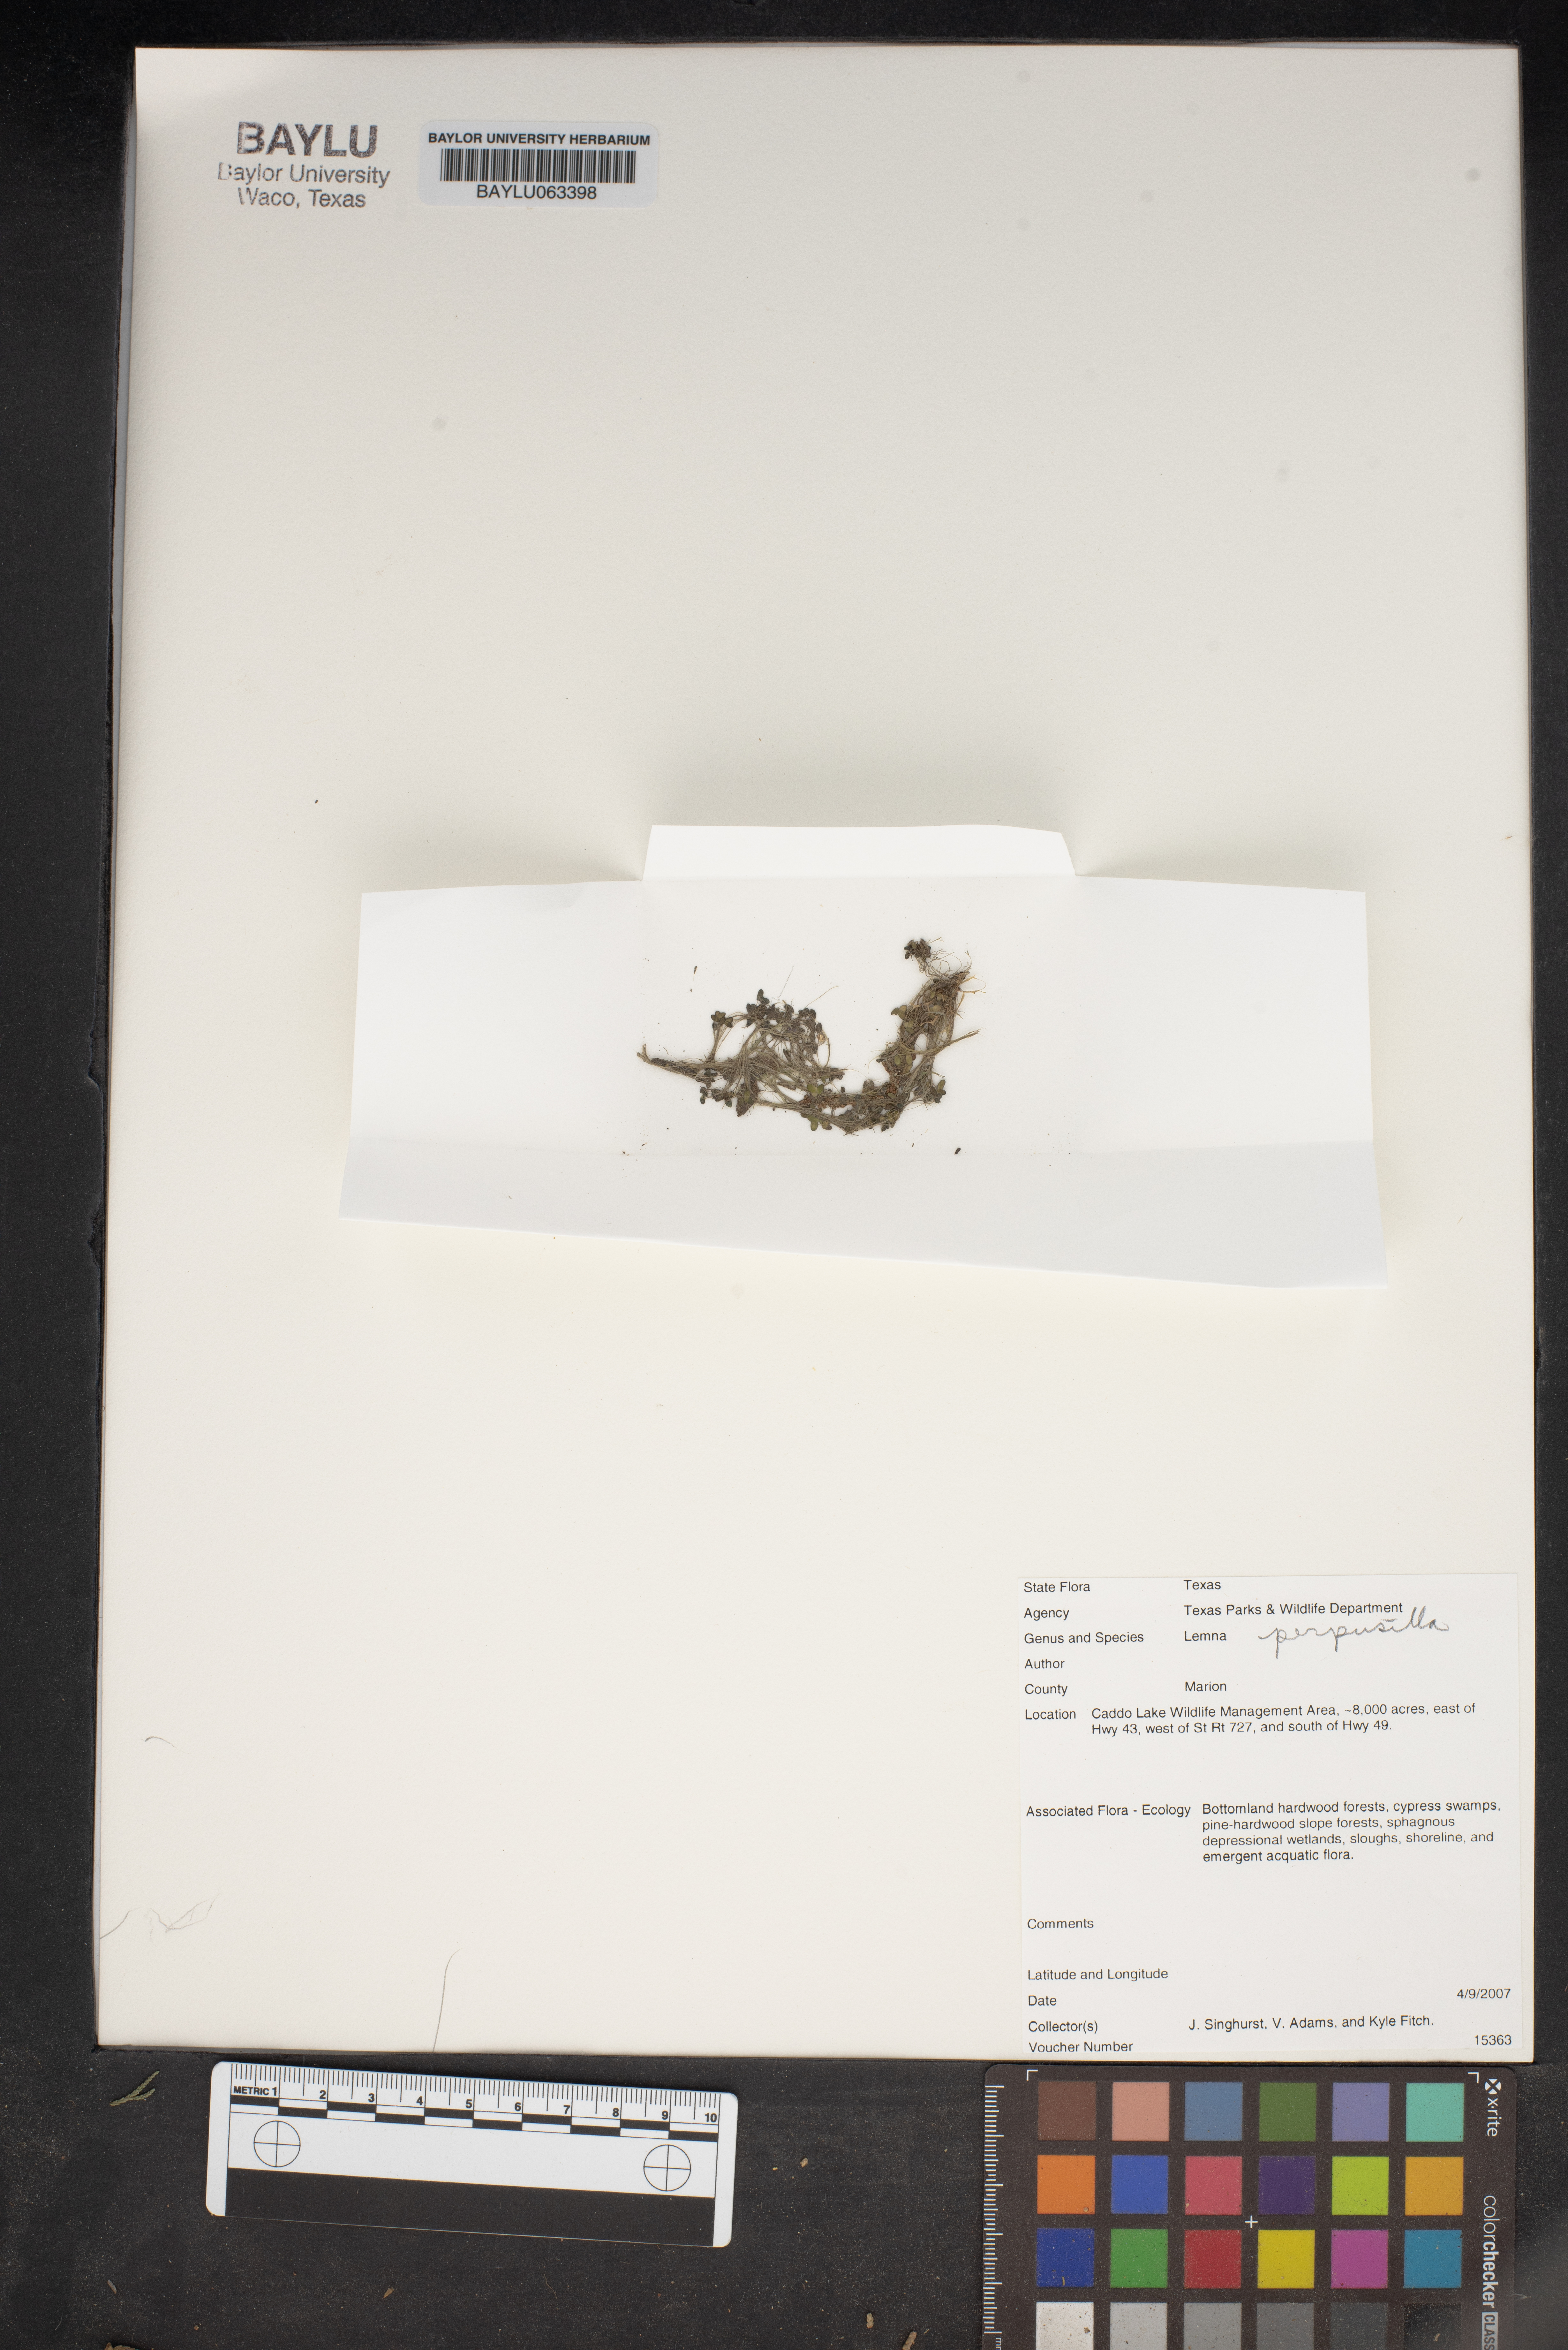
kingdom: Plantae
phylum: Tracheophyta
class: Liliopsida
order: Alismatales
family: Araceae
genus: Lemna
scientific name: Lemna perpusilla
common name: Duckweed
